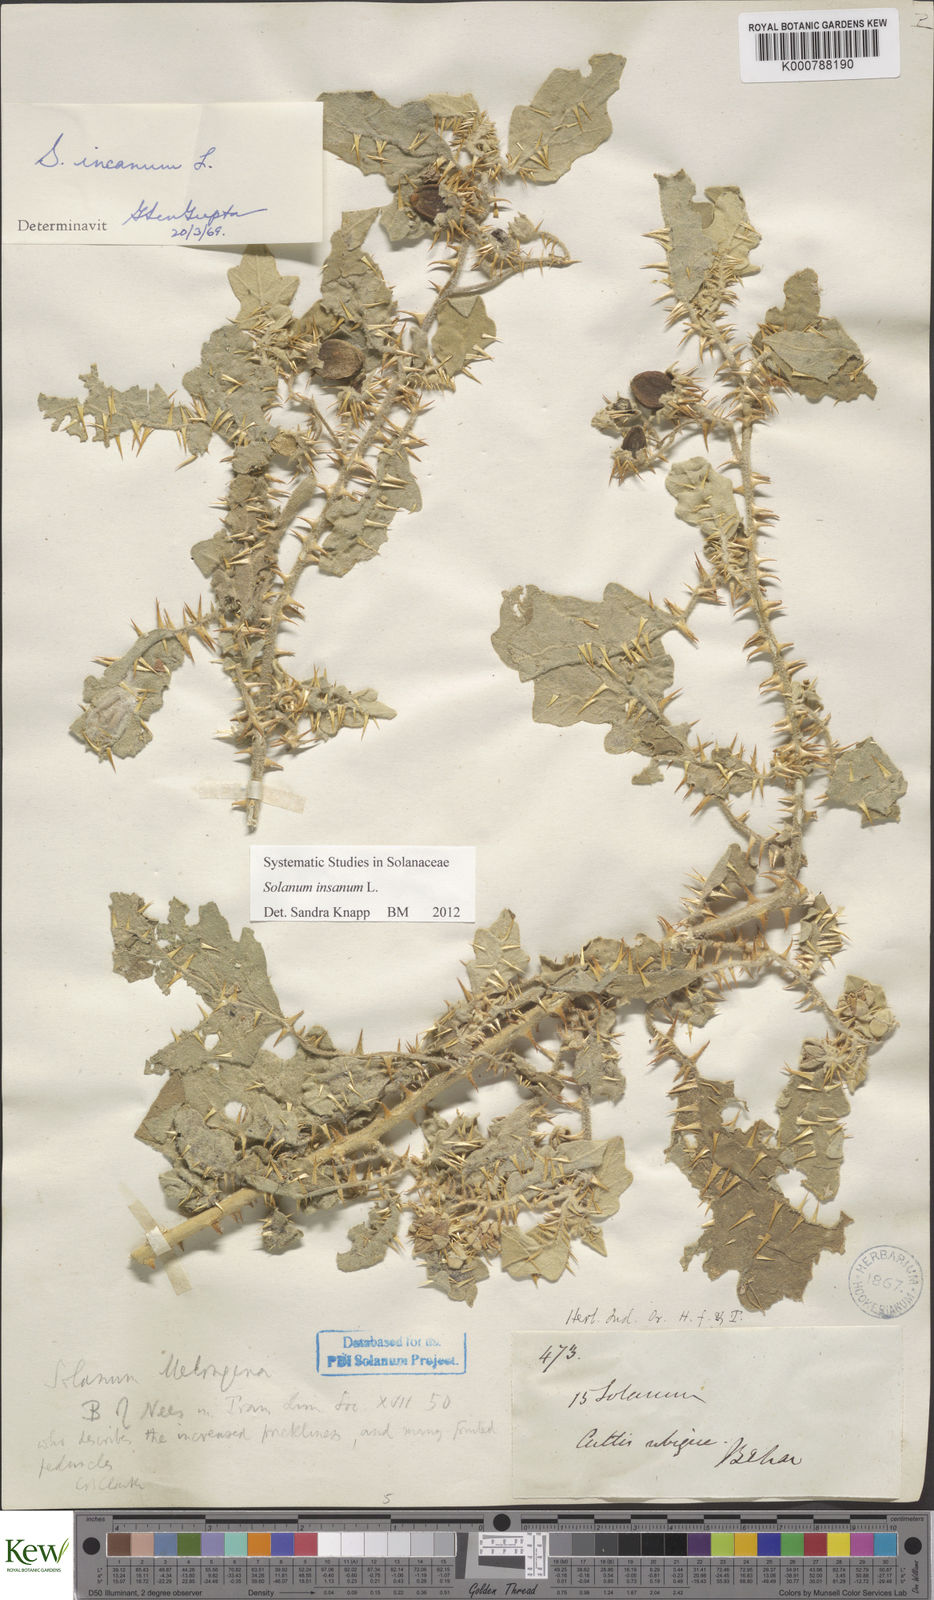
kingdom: Plantae
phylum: Tracheophyta
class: Magnoliopsida
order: Solanales
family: Solanaceae
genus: Solanum
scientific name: Solanum insanum
